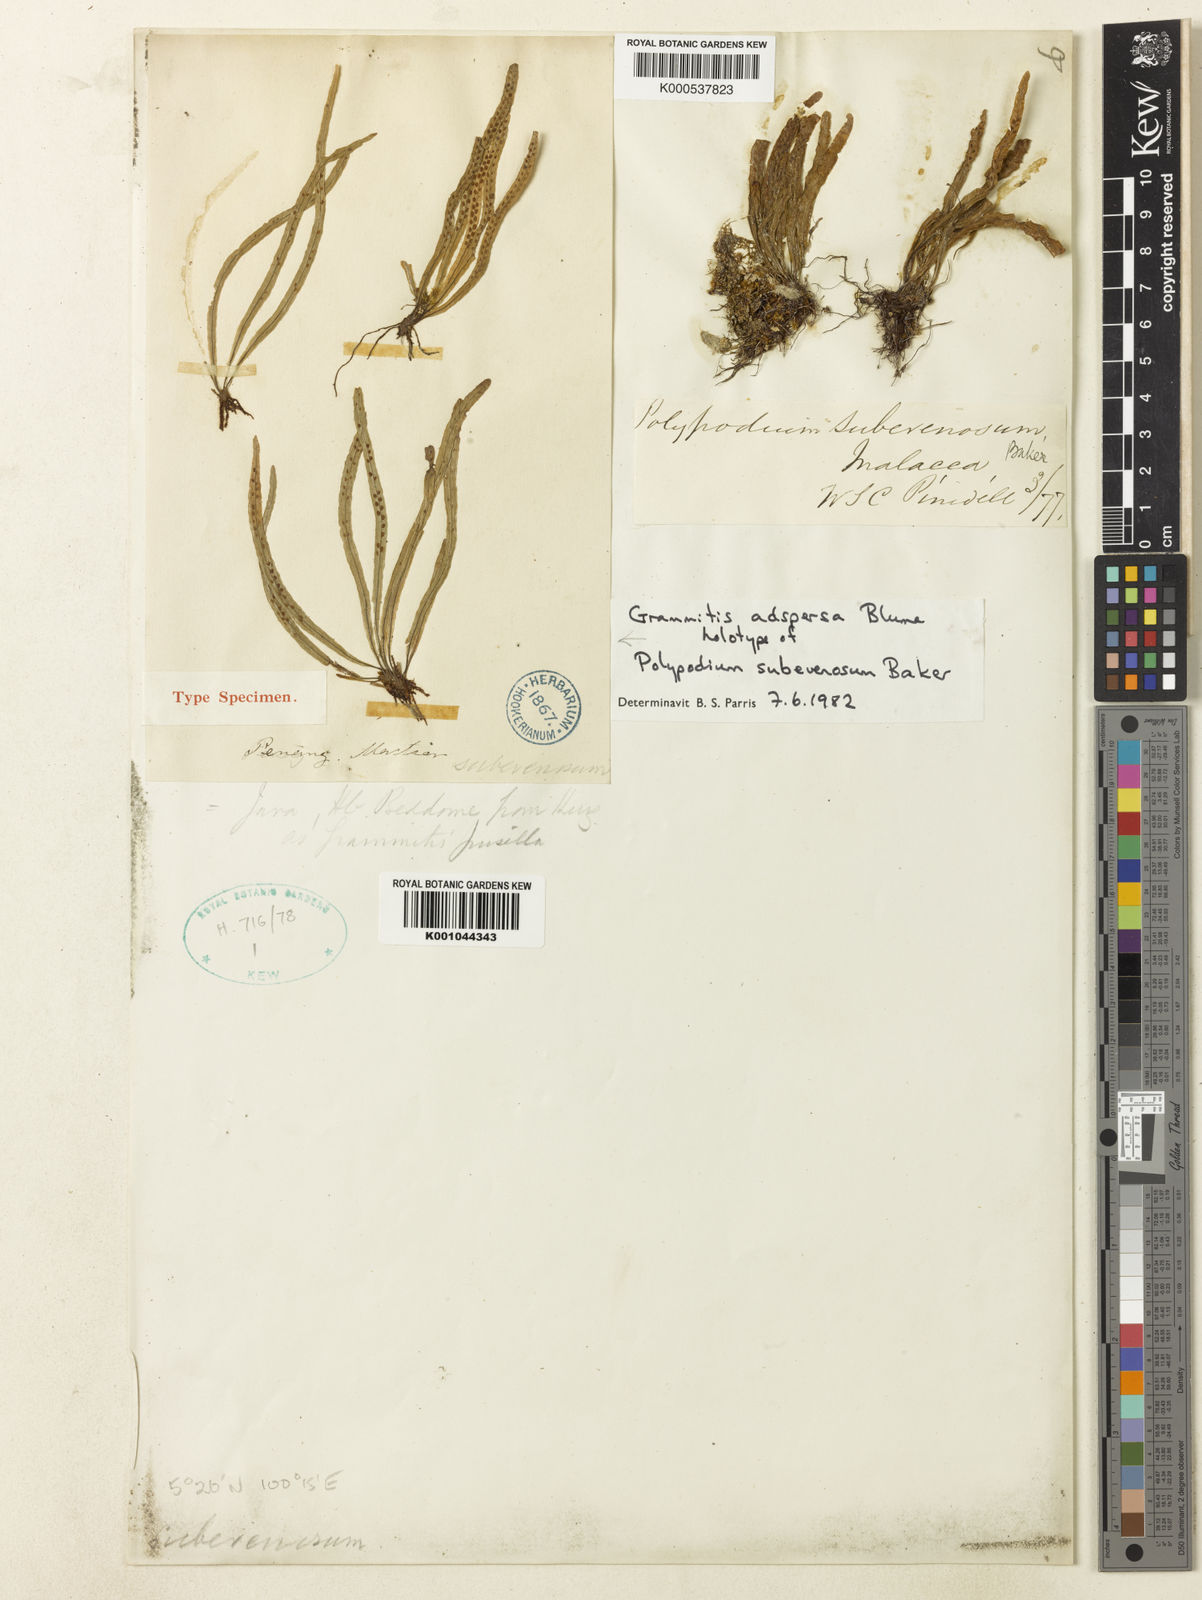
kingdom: Plantae
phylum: Tracheophyta
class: Polypodiopsida
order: Polypodiales
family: Polypodiaceae
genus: Oreogrammitis
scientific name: Oreogrammitis adspersa
